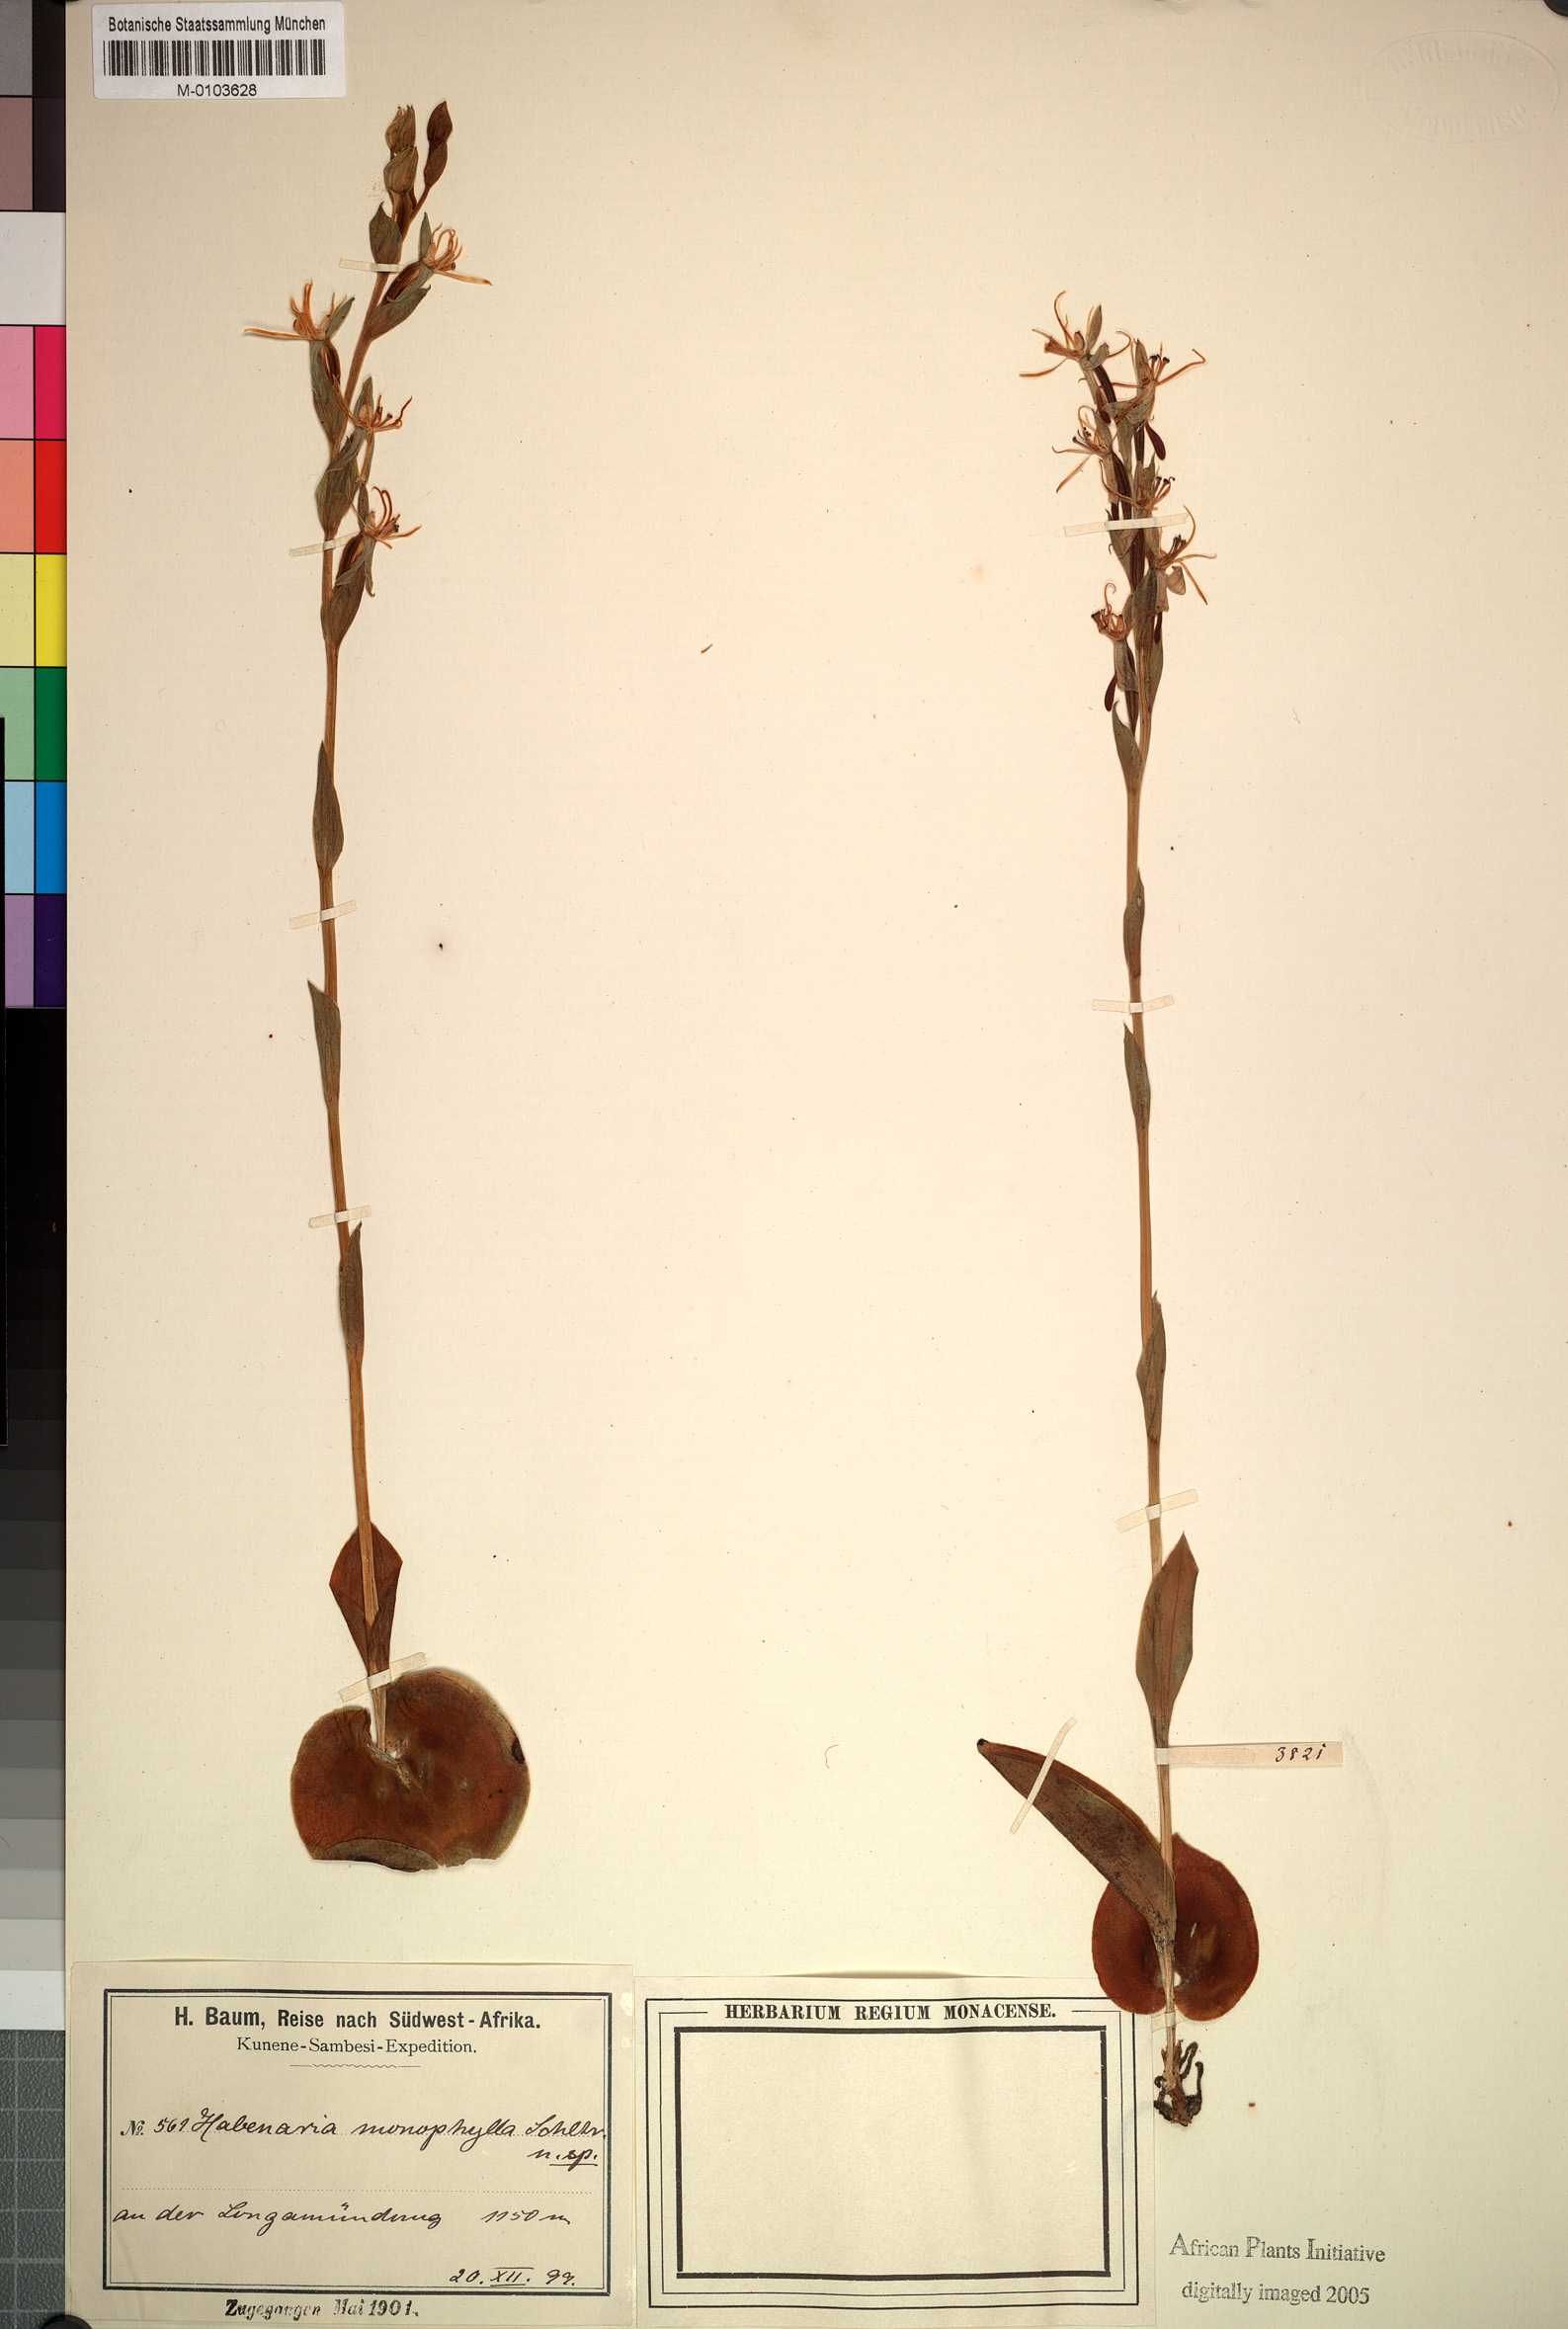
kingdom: Plantae
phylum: Tracheophyta
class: Liliopsida
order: Asparagales
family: Orchidaceae
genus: Habenaria
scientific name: Habenaria verdickii
